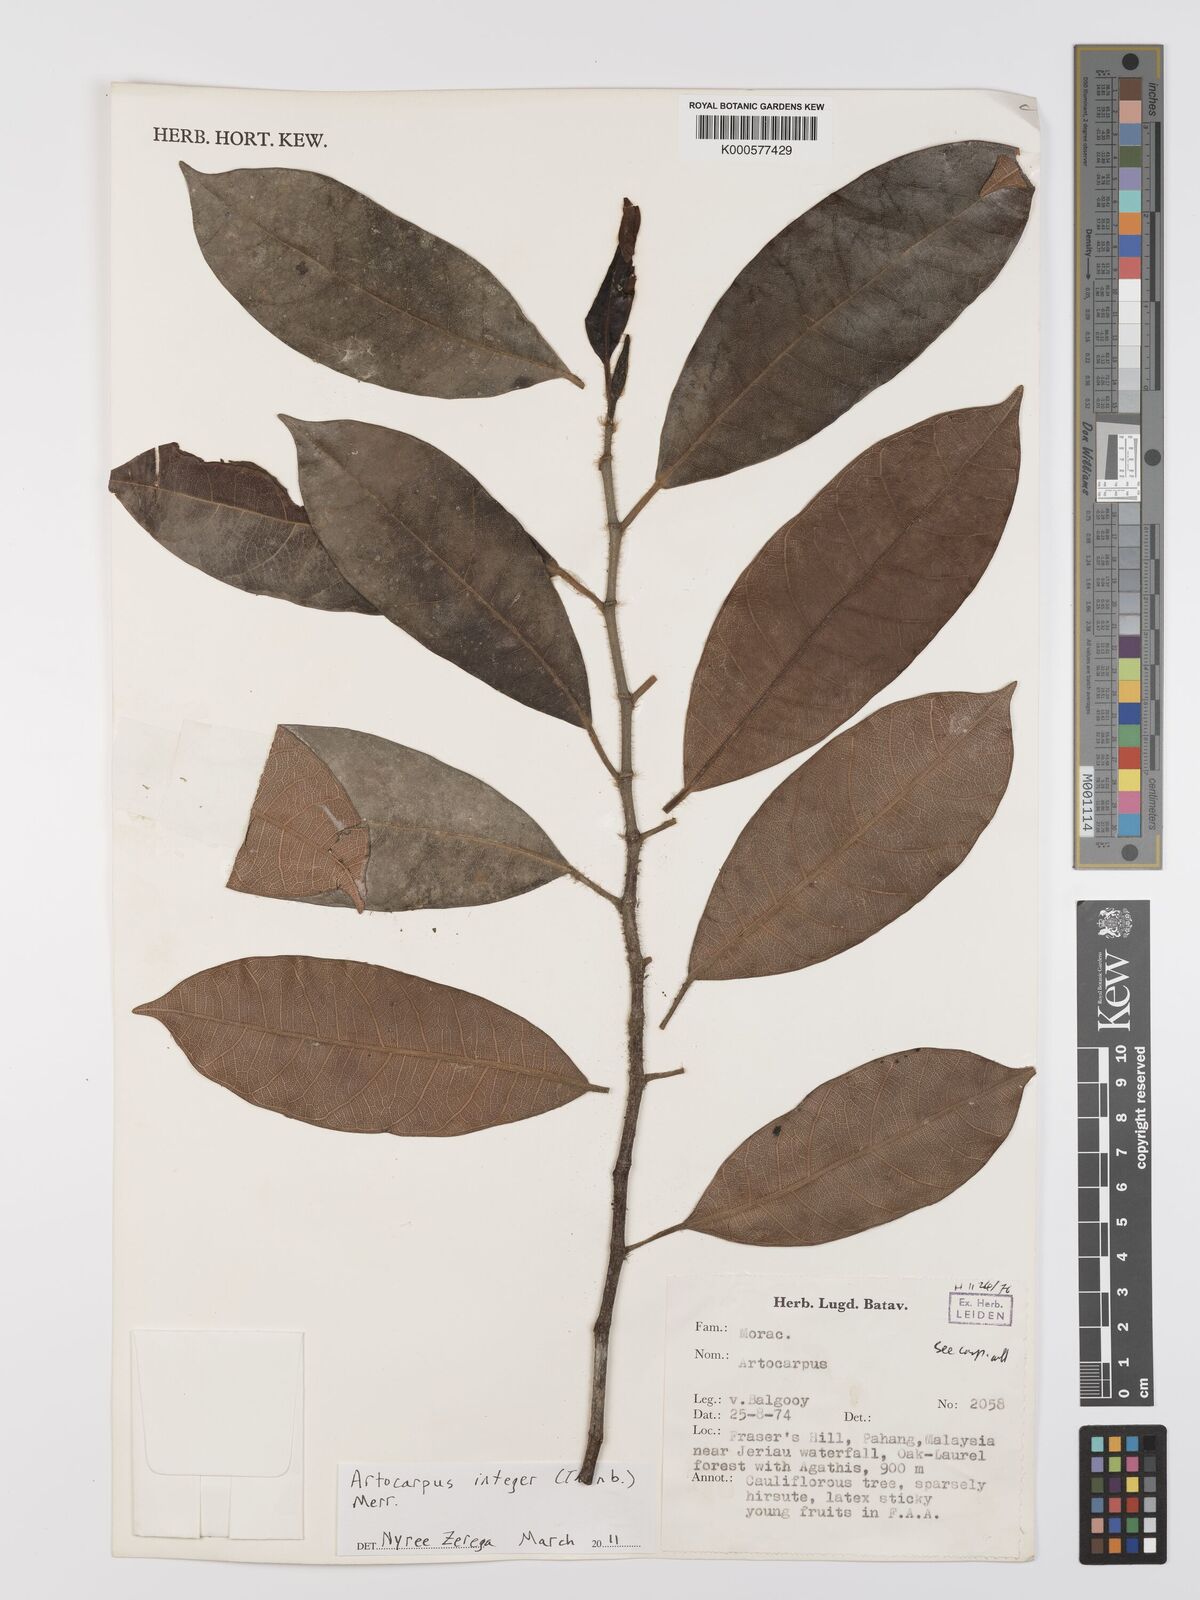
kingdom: Plantae
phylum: Tracheophyta
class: Magnoliopsida
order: Rosales
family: Moraceae
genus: Artocarpus
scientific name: Artocarpus integer
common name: Chempedak
